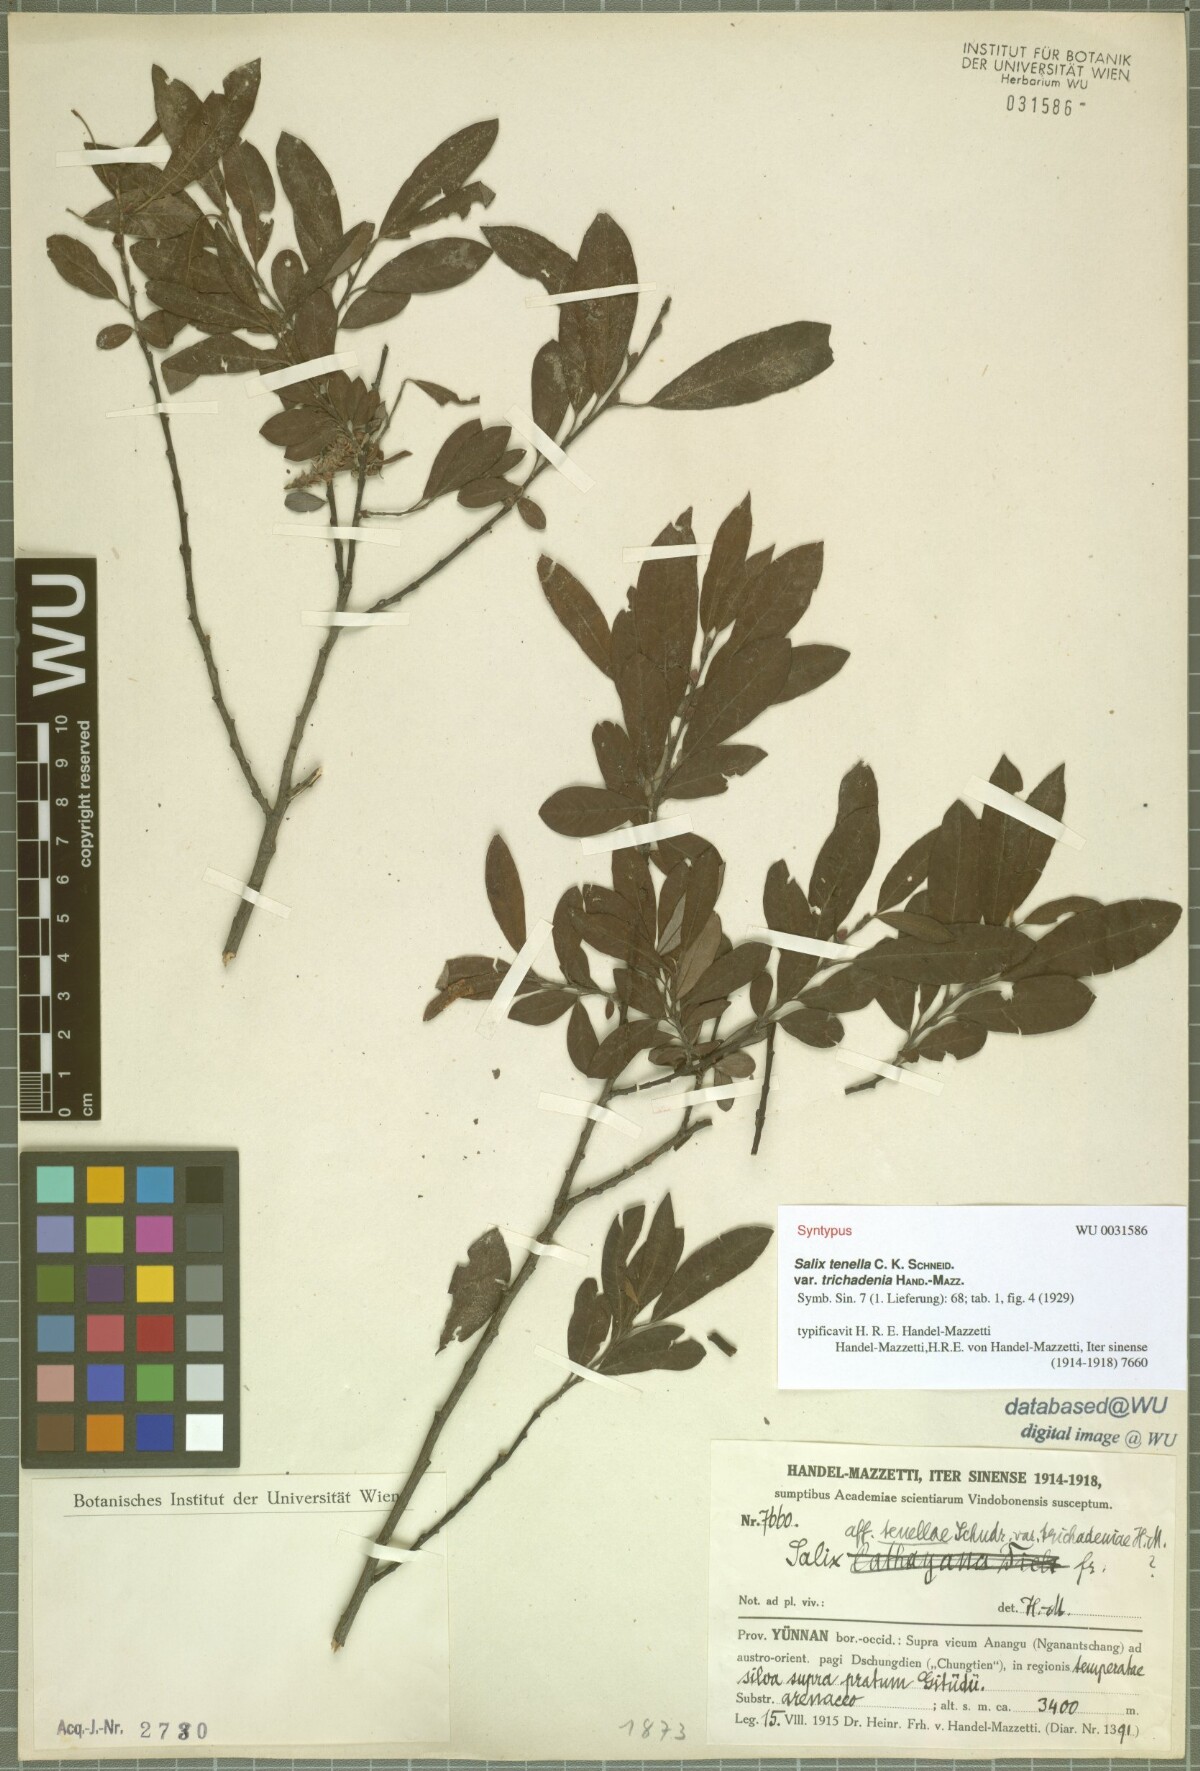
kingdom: Plantae
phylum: Tracheophyta
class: Magnoliopsida
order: Malpighiales
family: Salicaceae
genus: Salix
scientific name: Salix tenella
